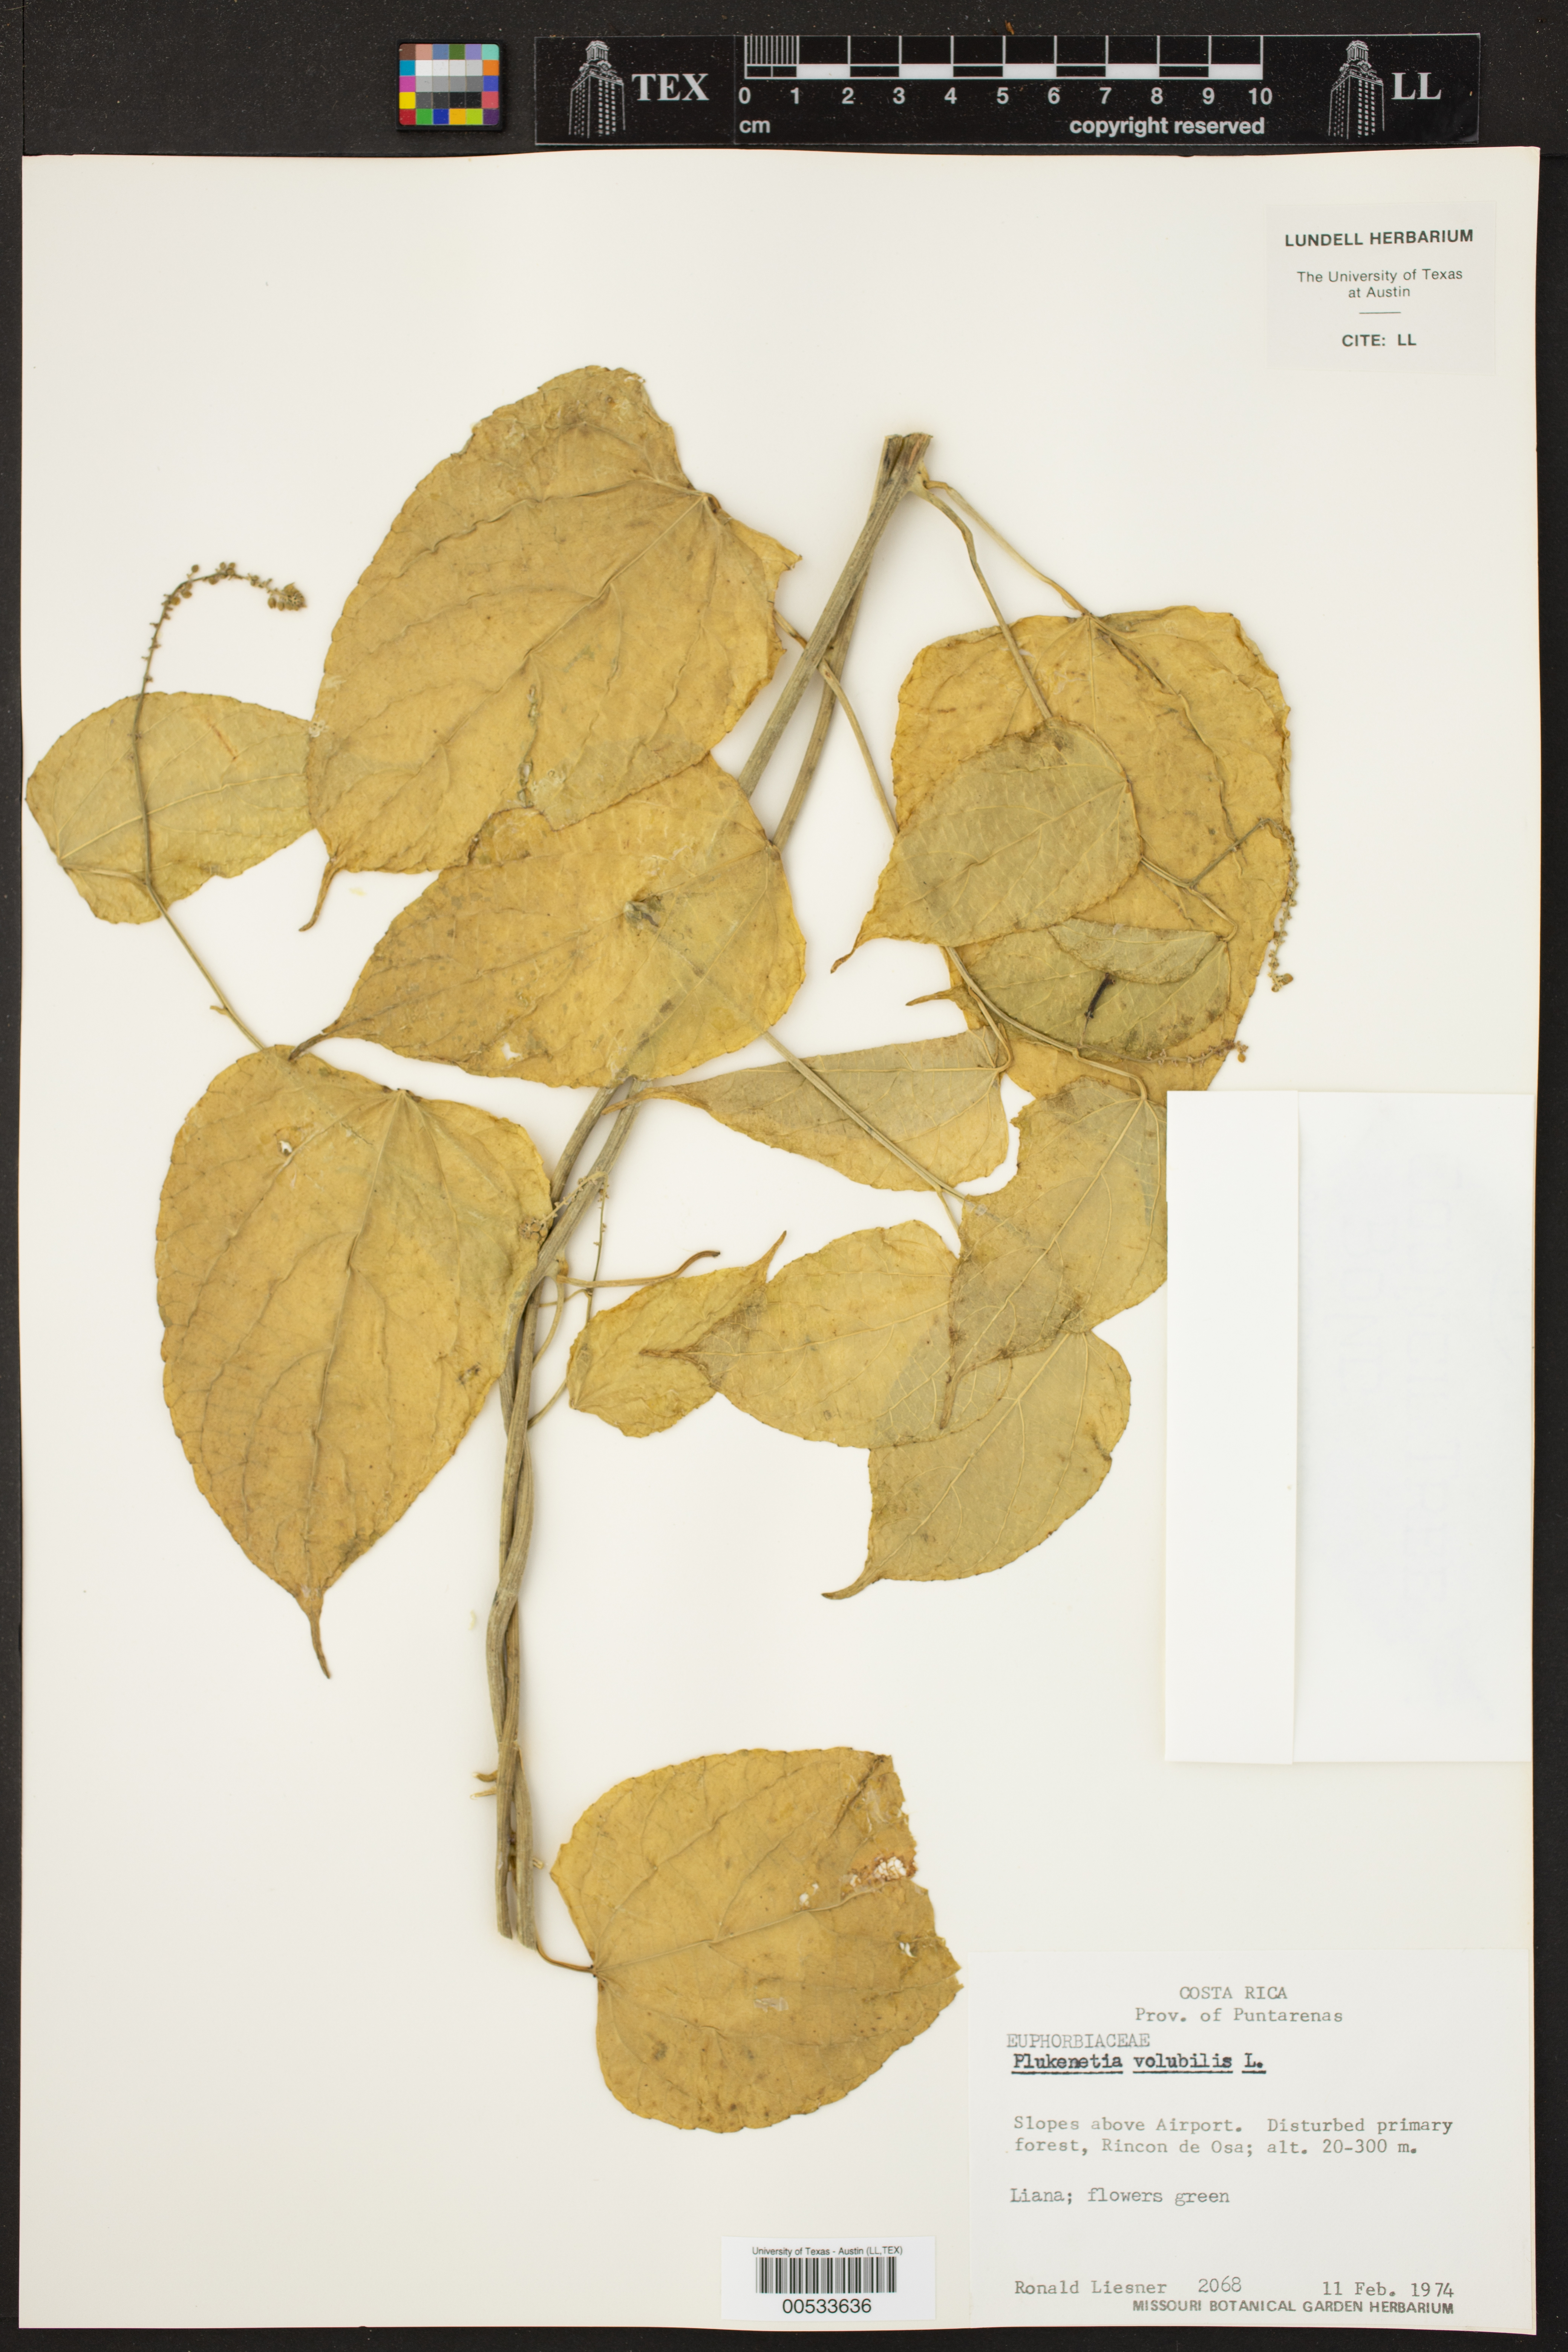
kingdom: Plantae
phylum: Tracheophyta
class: Magnoliopsida
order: Malpighiales
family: Euphorbiaceae
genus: Plukenetia
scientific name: Plukenetia volubilis
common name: Inca-peanut
